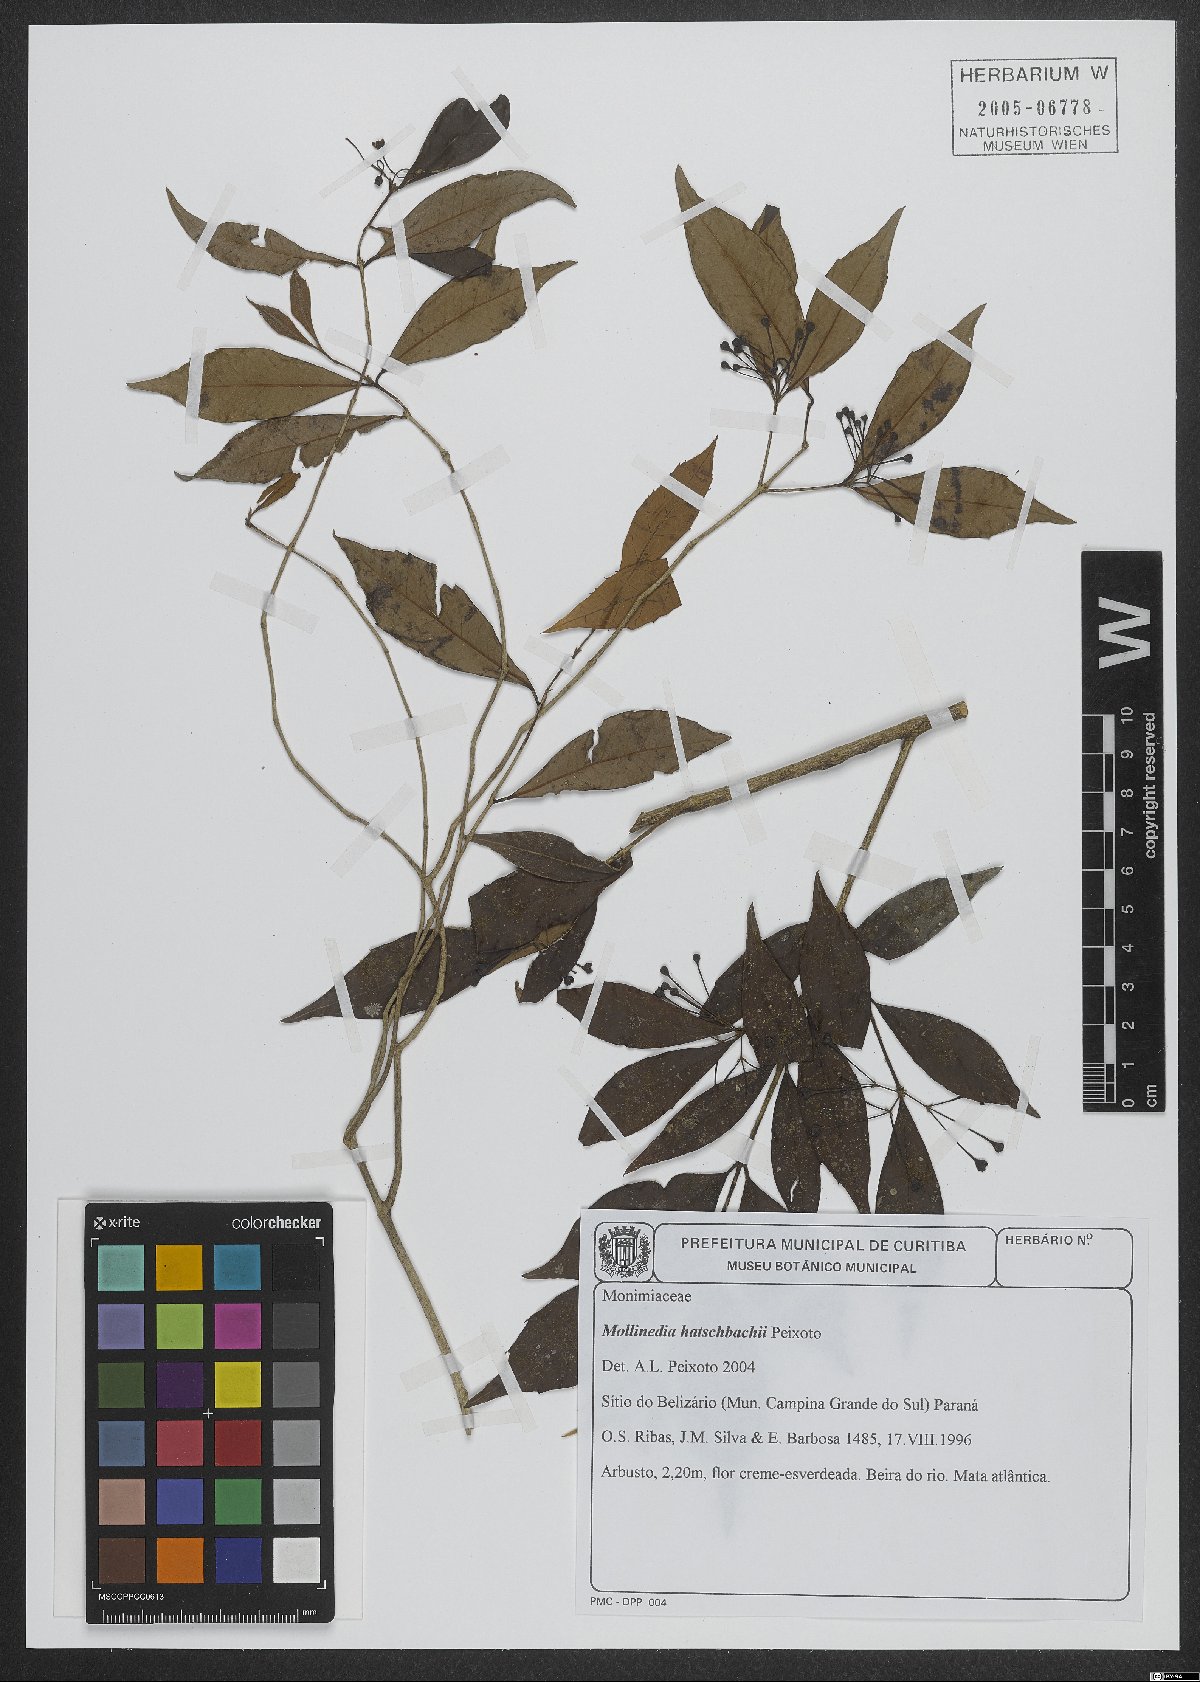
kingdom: Plantae
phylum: Tracheophyta
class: Magnoliopsida
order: Laurales
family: Monimiaceae
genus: Mollinedia
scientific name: Mollinedia hatschbachii
